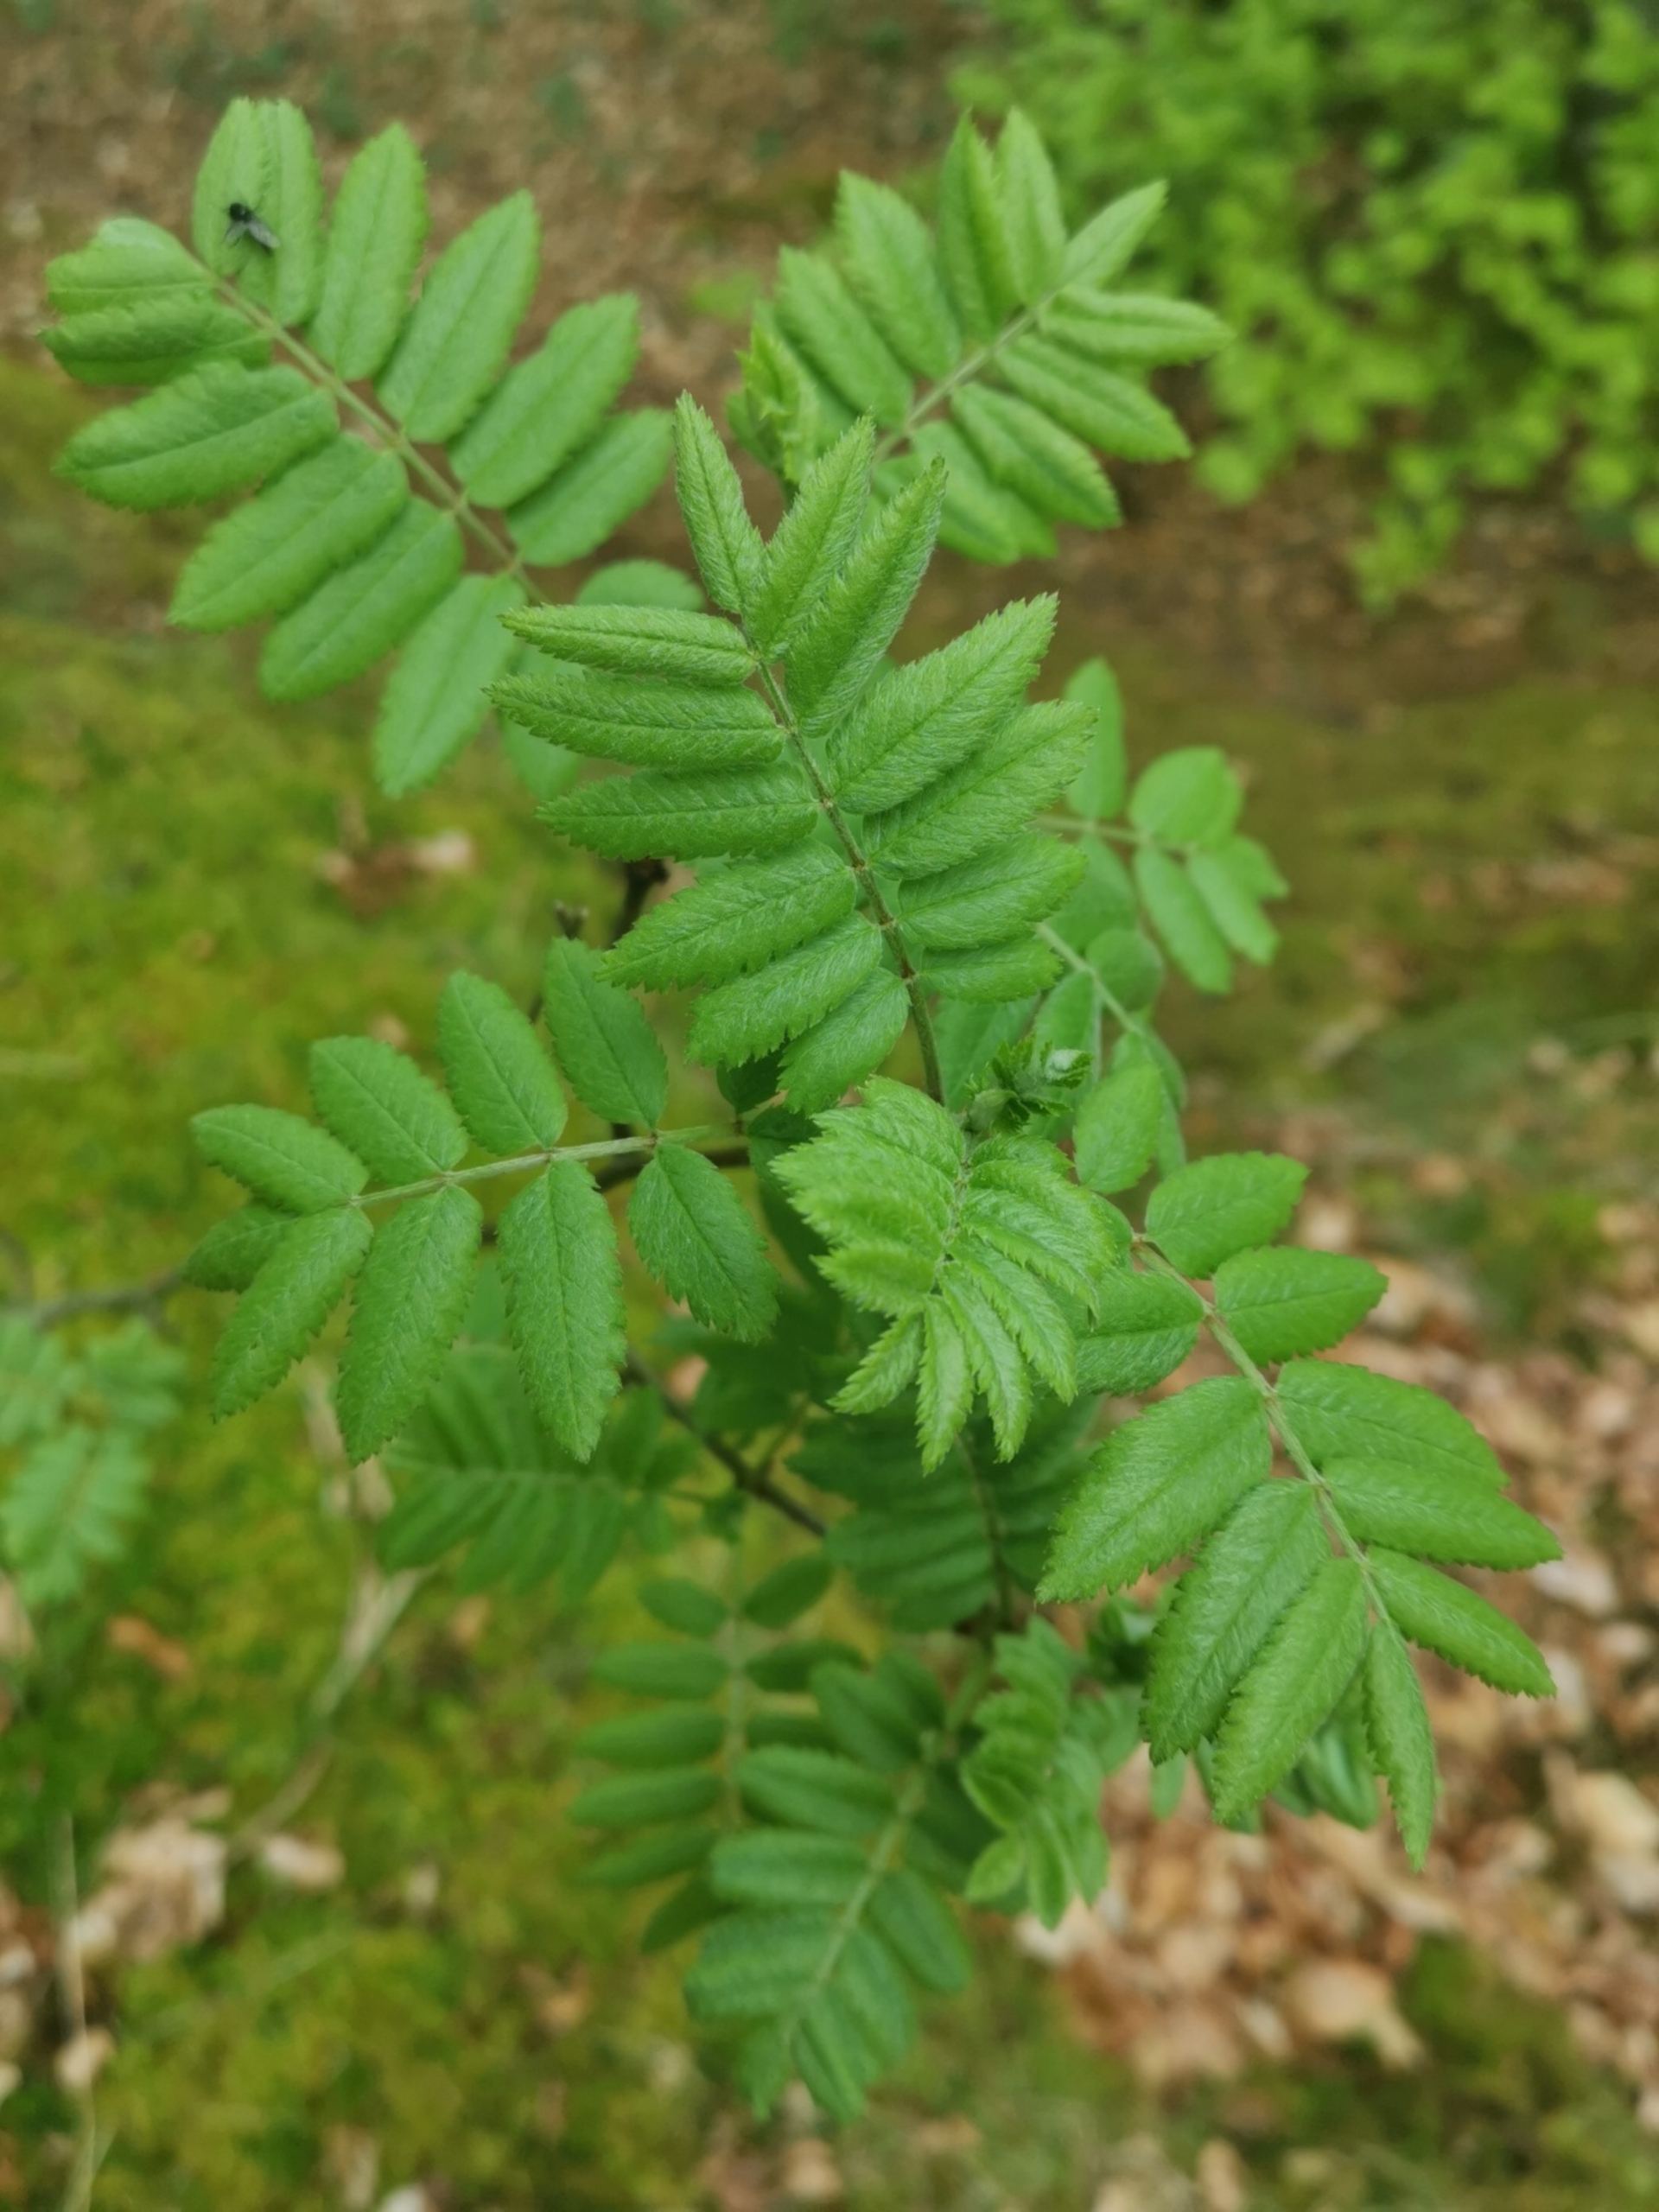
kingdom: Plantae
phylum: Tracheophyta
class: Magnoliopsida
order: Rosales
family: Rosaceae
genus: Sorbus
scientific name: Sorbus aucuparia
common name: Almindelig røn
